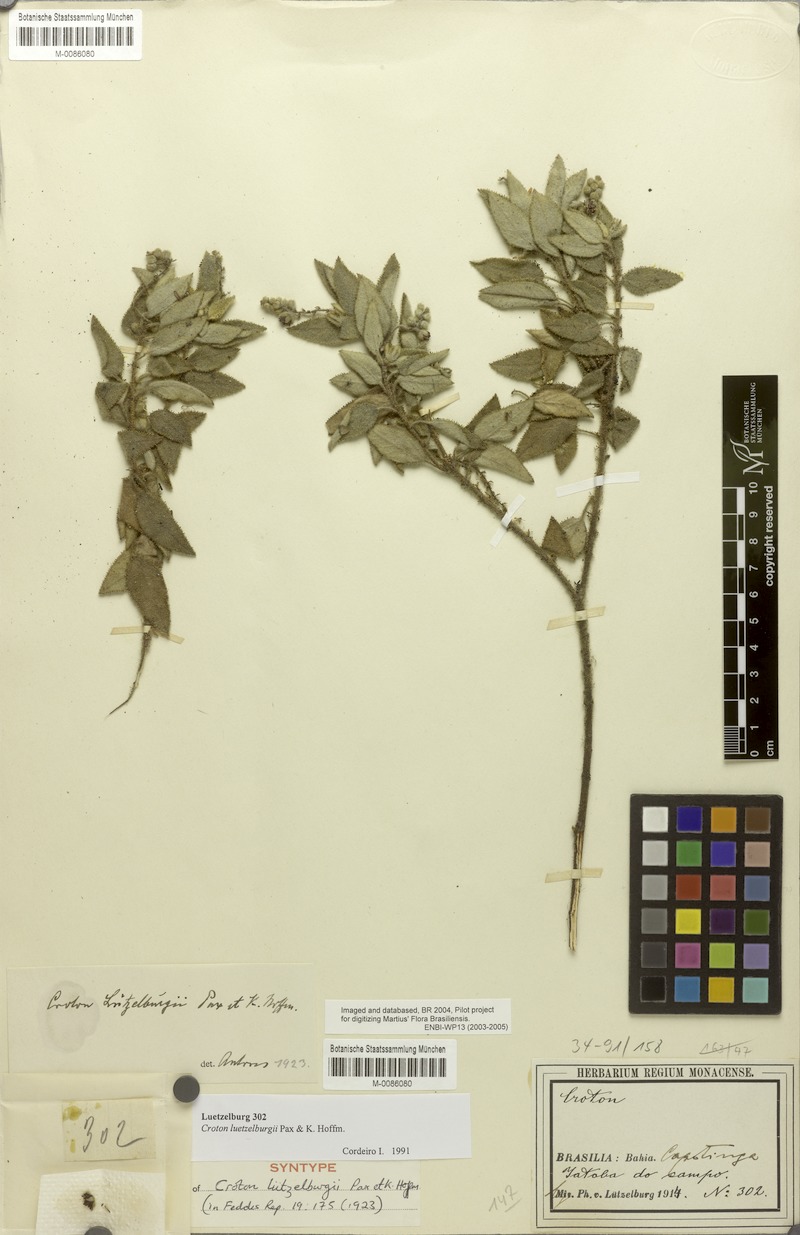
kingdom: Plantae
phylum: Tracheophyta
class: Magnoliopsida
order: Malpighiales
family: Euphorbiaceae
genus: Croton
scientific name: Croton heliotropiifolius
